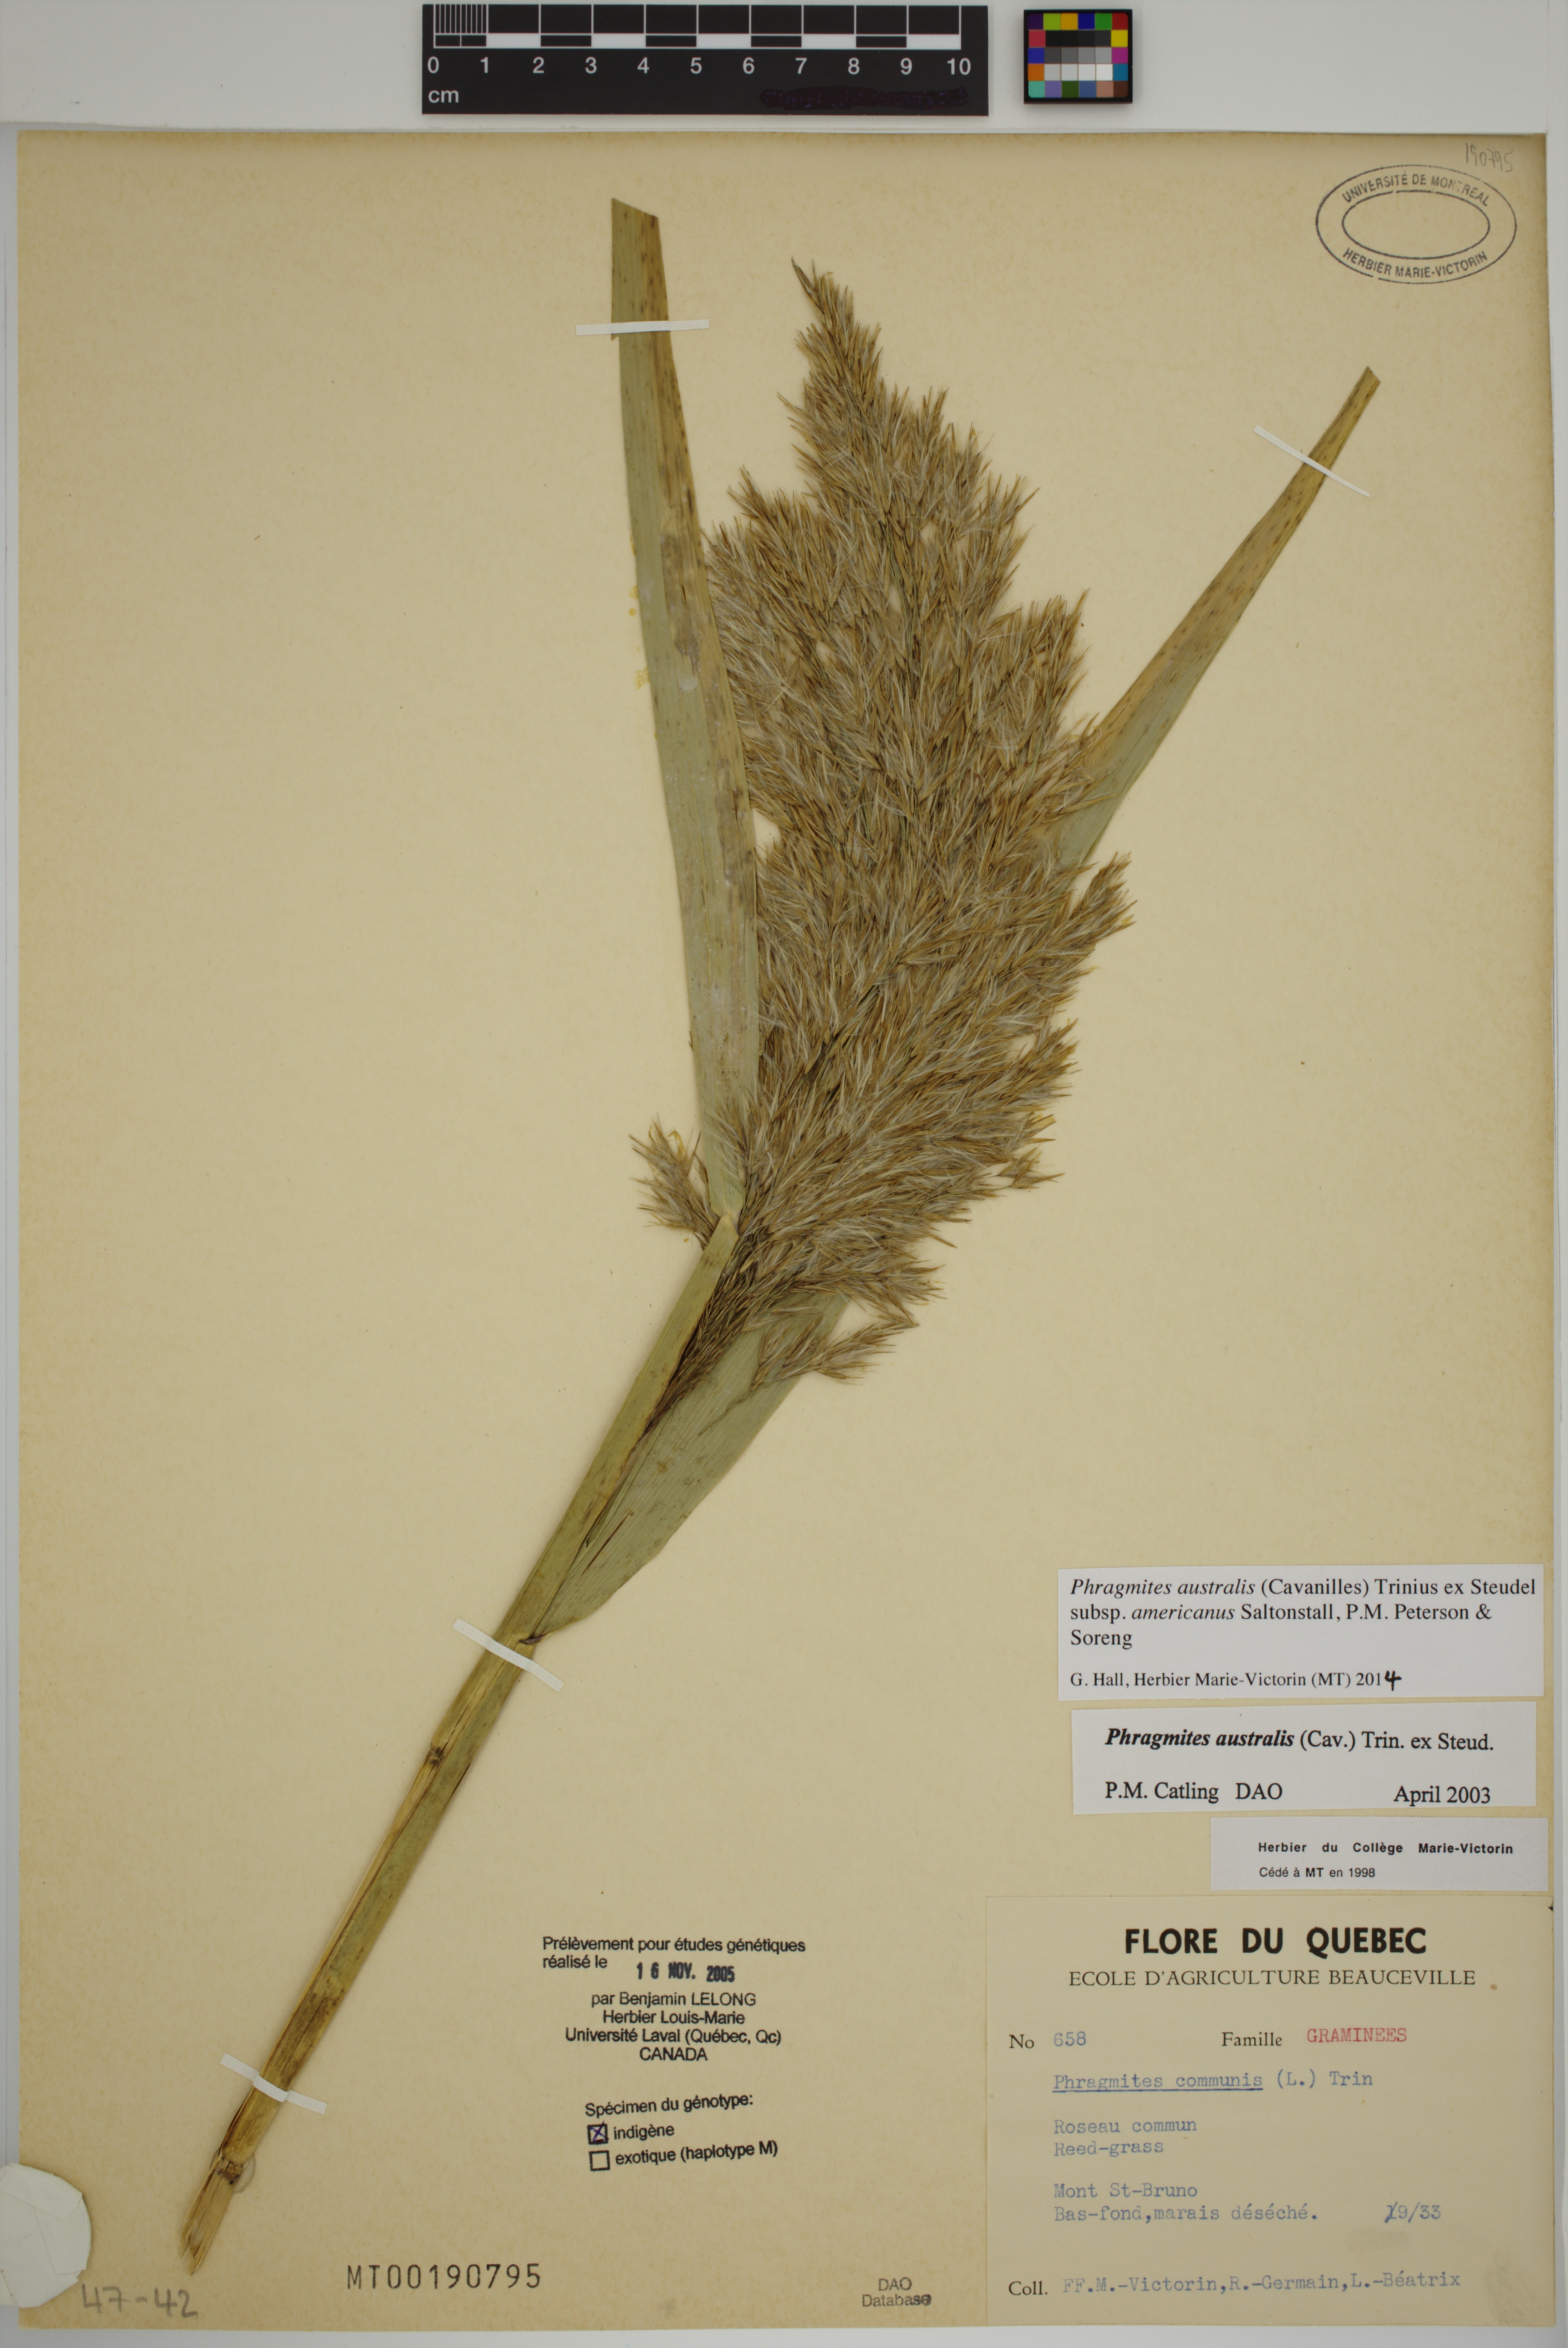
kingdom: Plantae
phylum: Tracheophyta
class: Liliopsida
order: Poales
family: Poaceae
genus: Phragmites
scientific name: Phragmites australis
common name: Common reed
